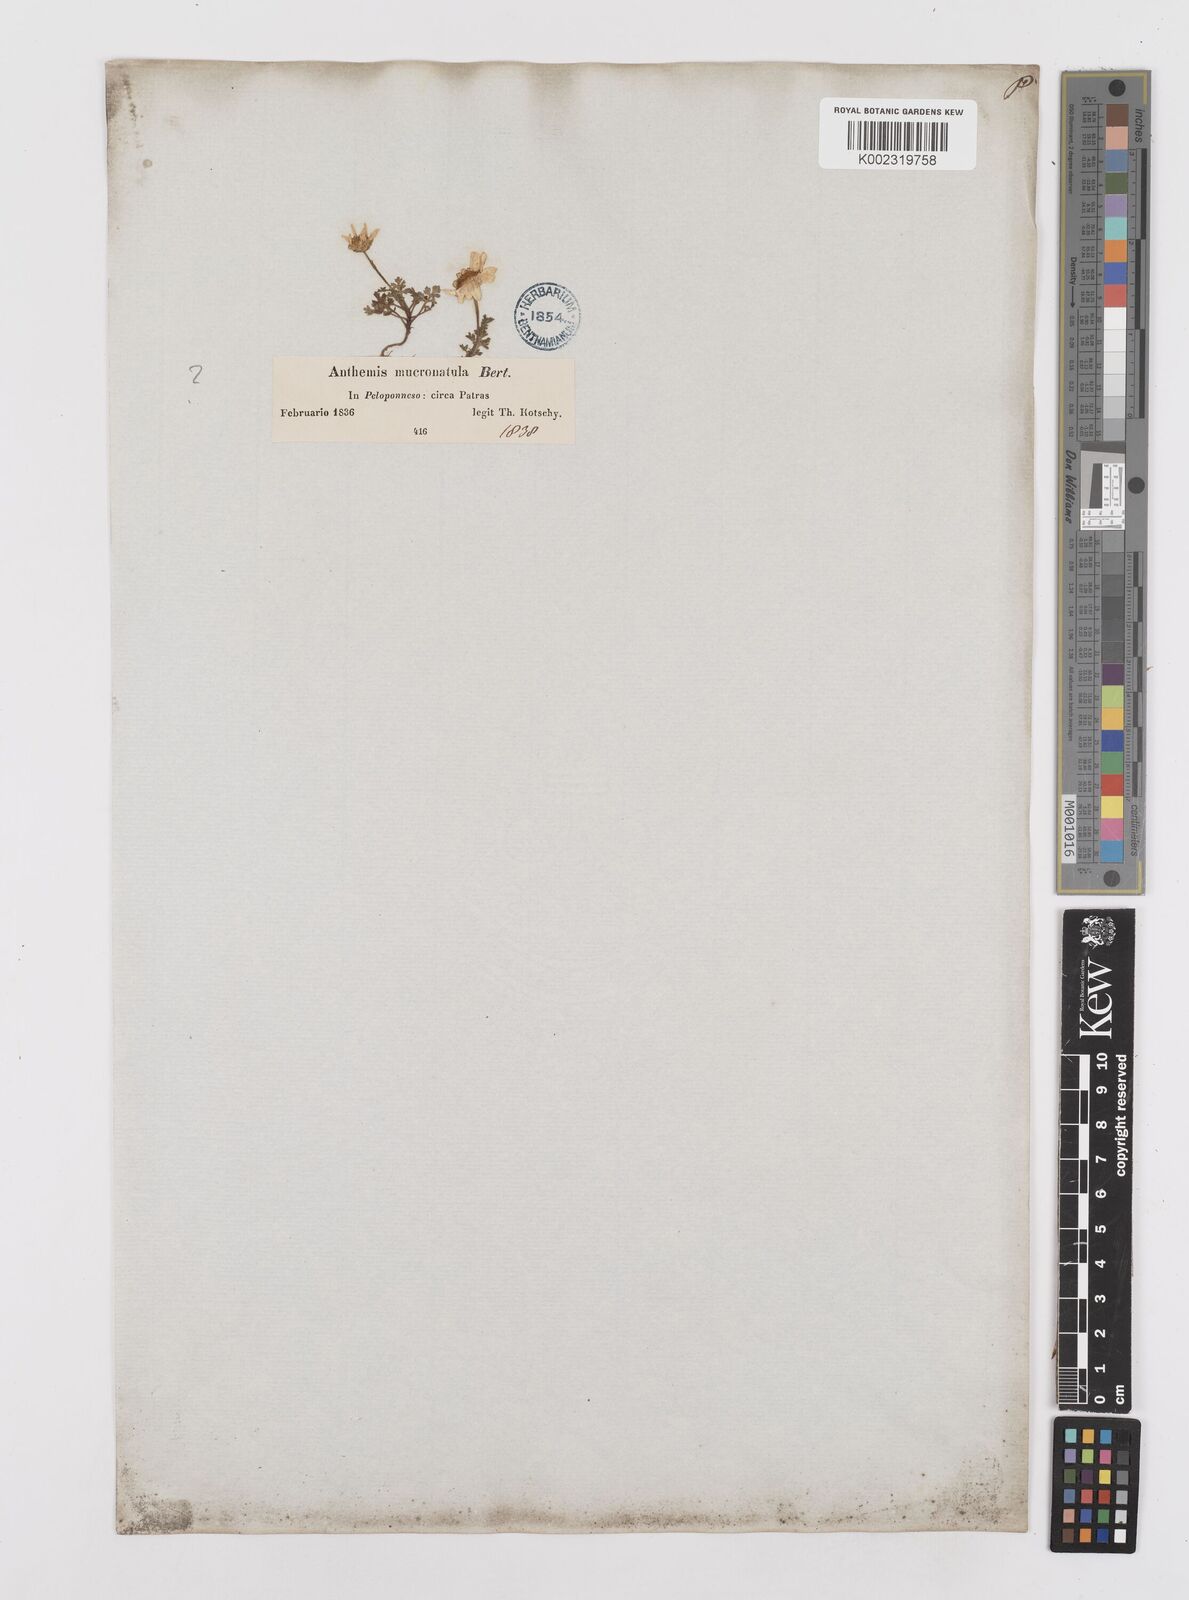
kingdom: Plantae
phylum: Tracheophyta
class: Magnoliopsida
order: Asterales
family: Asteraceae
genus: Achillea
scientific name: Achillea barrelieri
